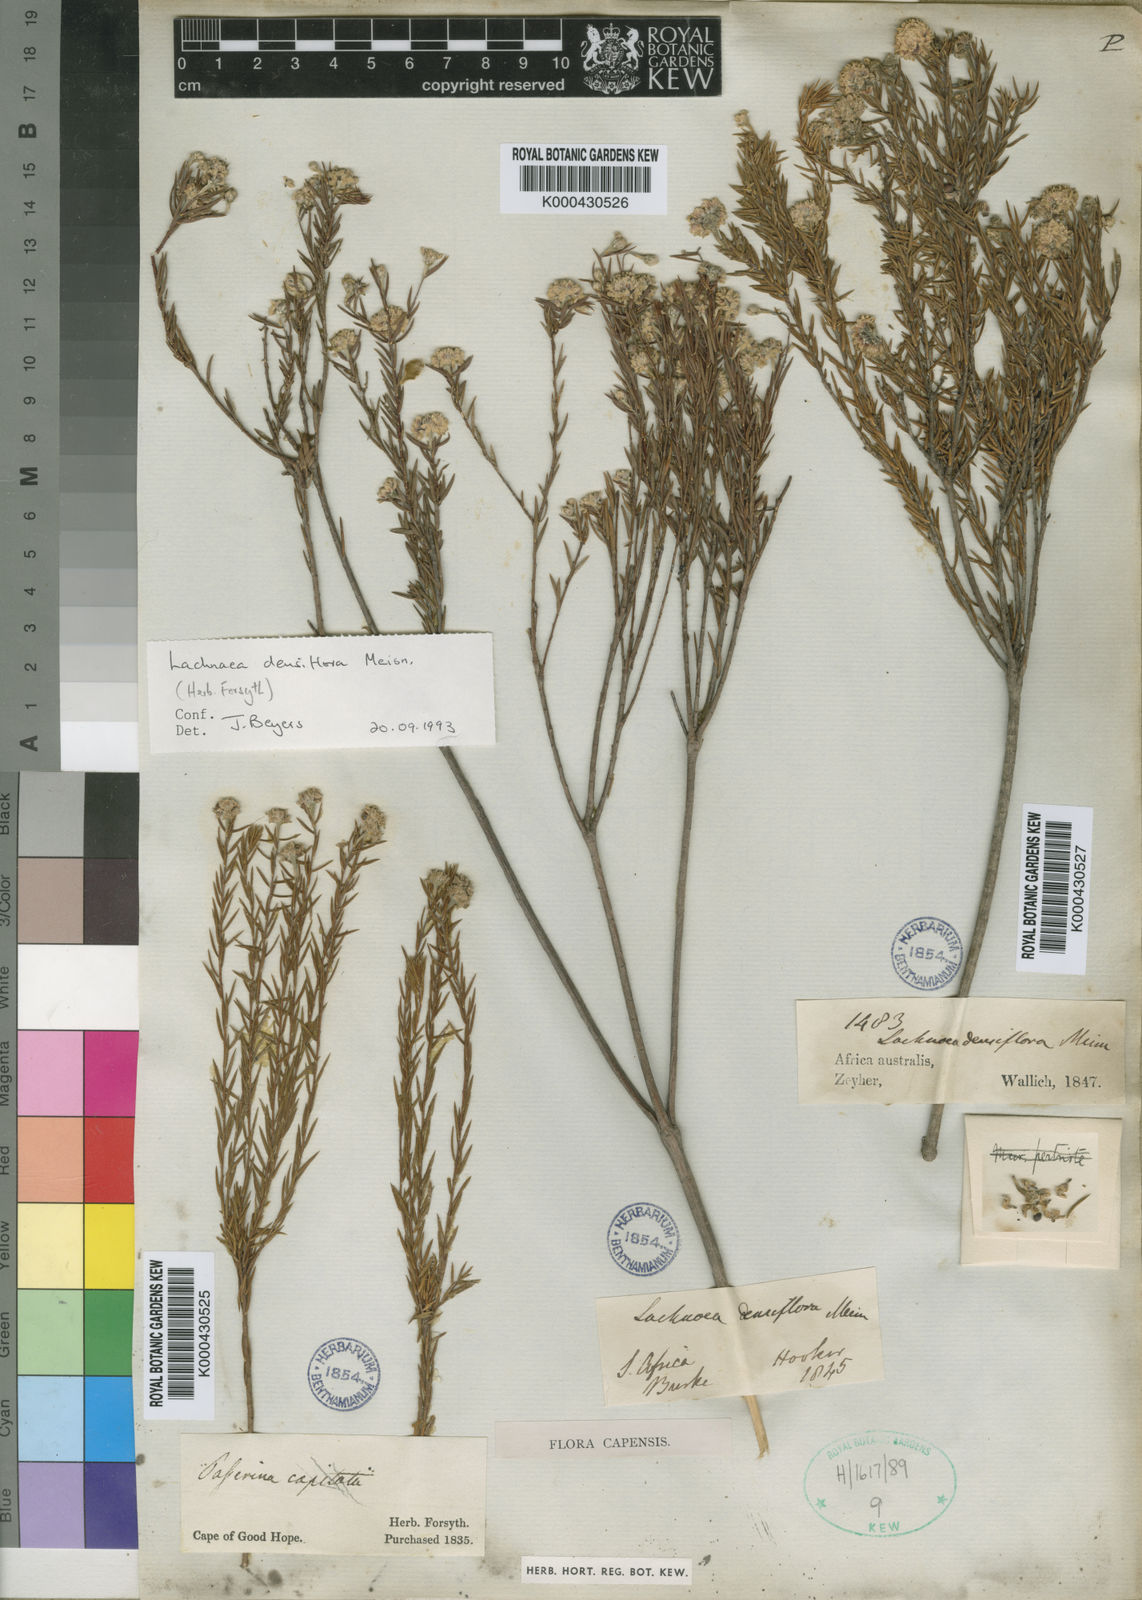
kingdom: Plantae
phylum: Tracheophyta
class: Magnoliopsida
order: Malvales
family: Thymelaeaceae
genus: Lachnaea
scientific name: Lachnaea densiflora
